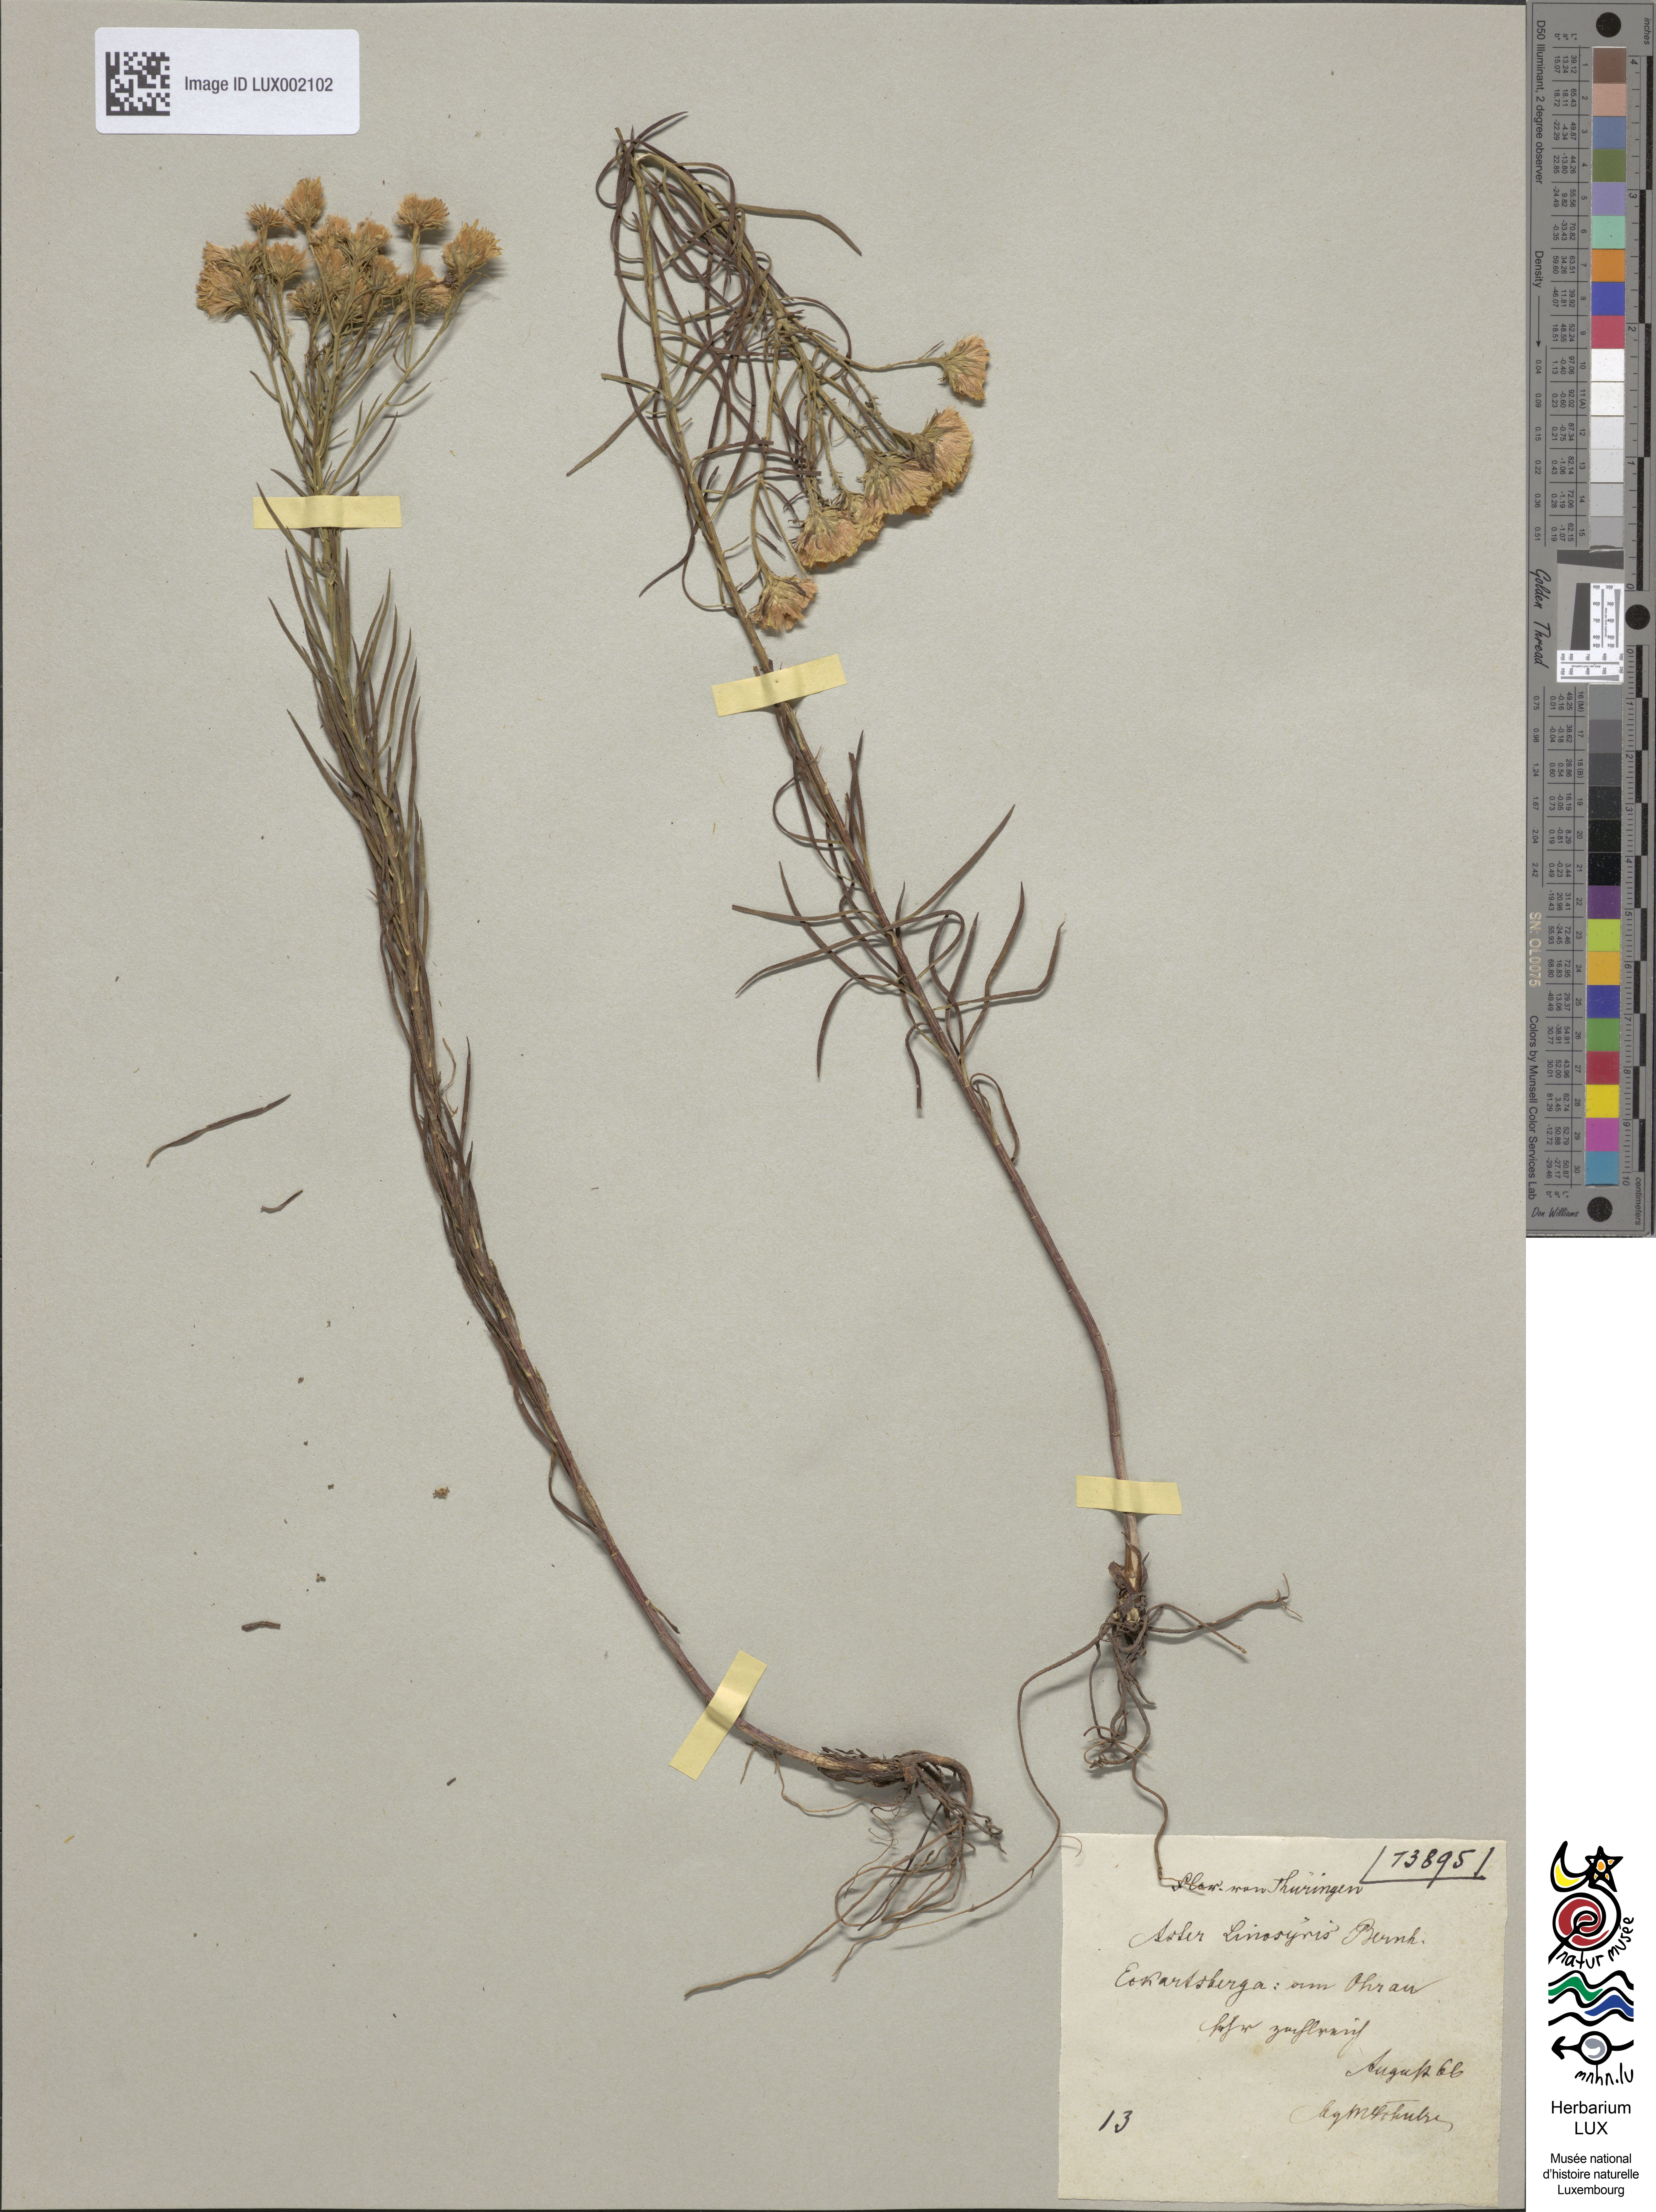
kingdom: Plantae
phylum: Tracheophyta
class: Magnoliopsida
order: Asterales
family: Asteraceae
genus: Galatella
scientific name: Galatella linosyris
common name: Goldilocks aster
